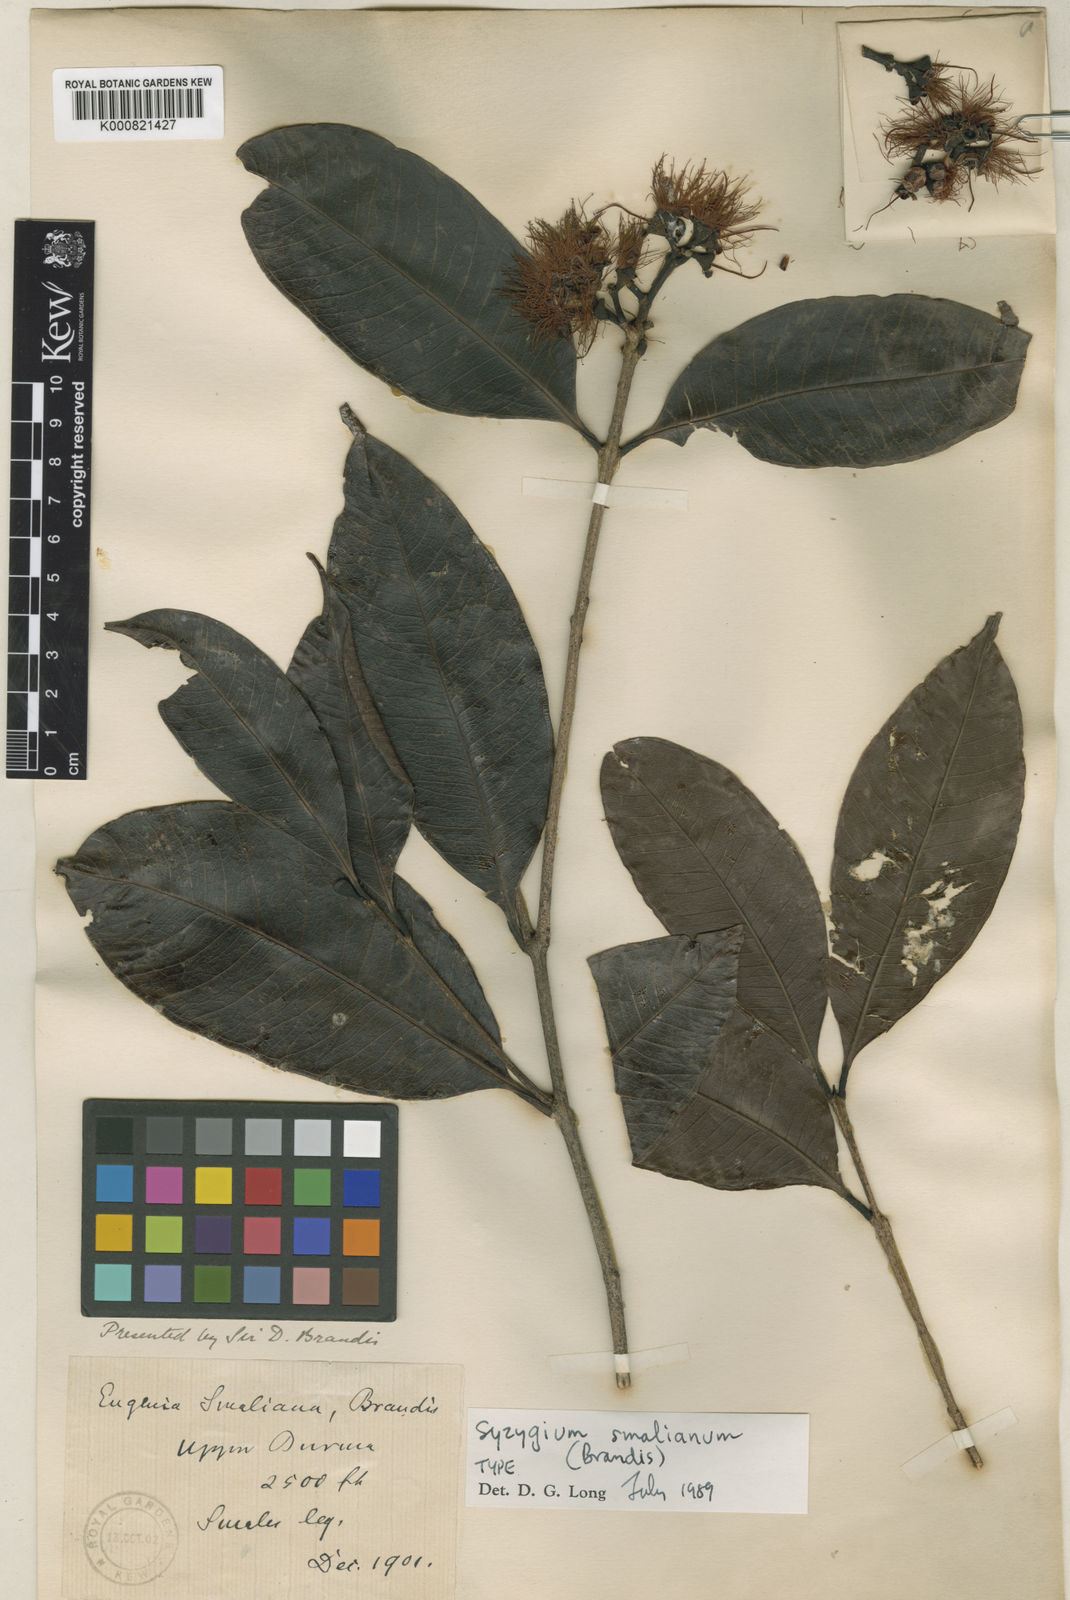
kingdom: Plantae
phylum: Tracheophyta
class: Magnoliopsida
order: Myrtales
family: Myrtaceae
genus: Syzygium
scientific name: Syzygium smalianum
